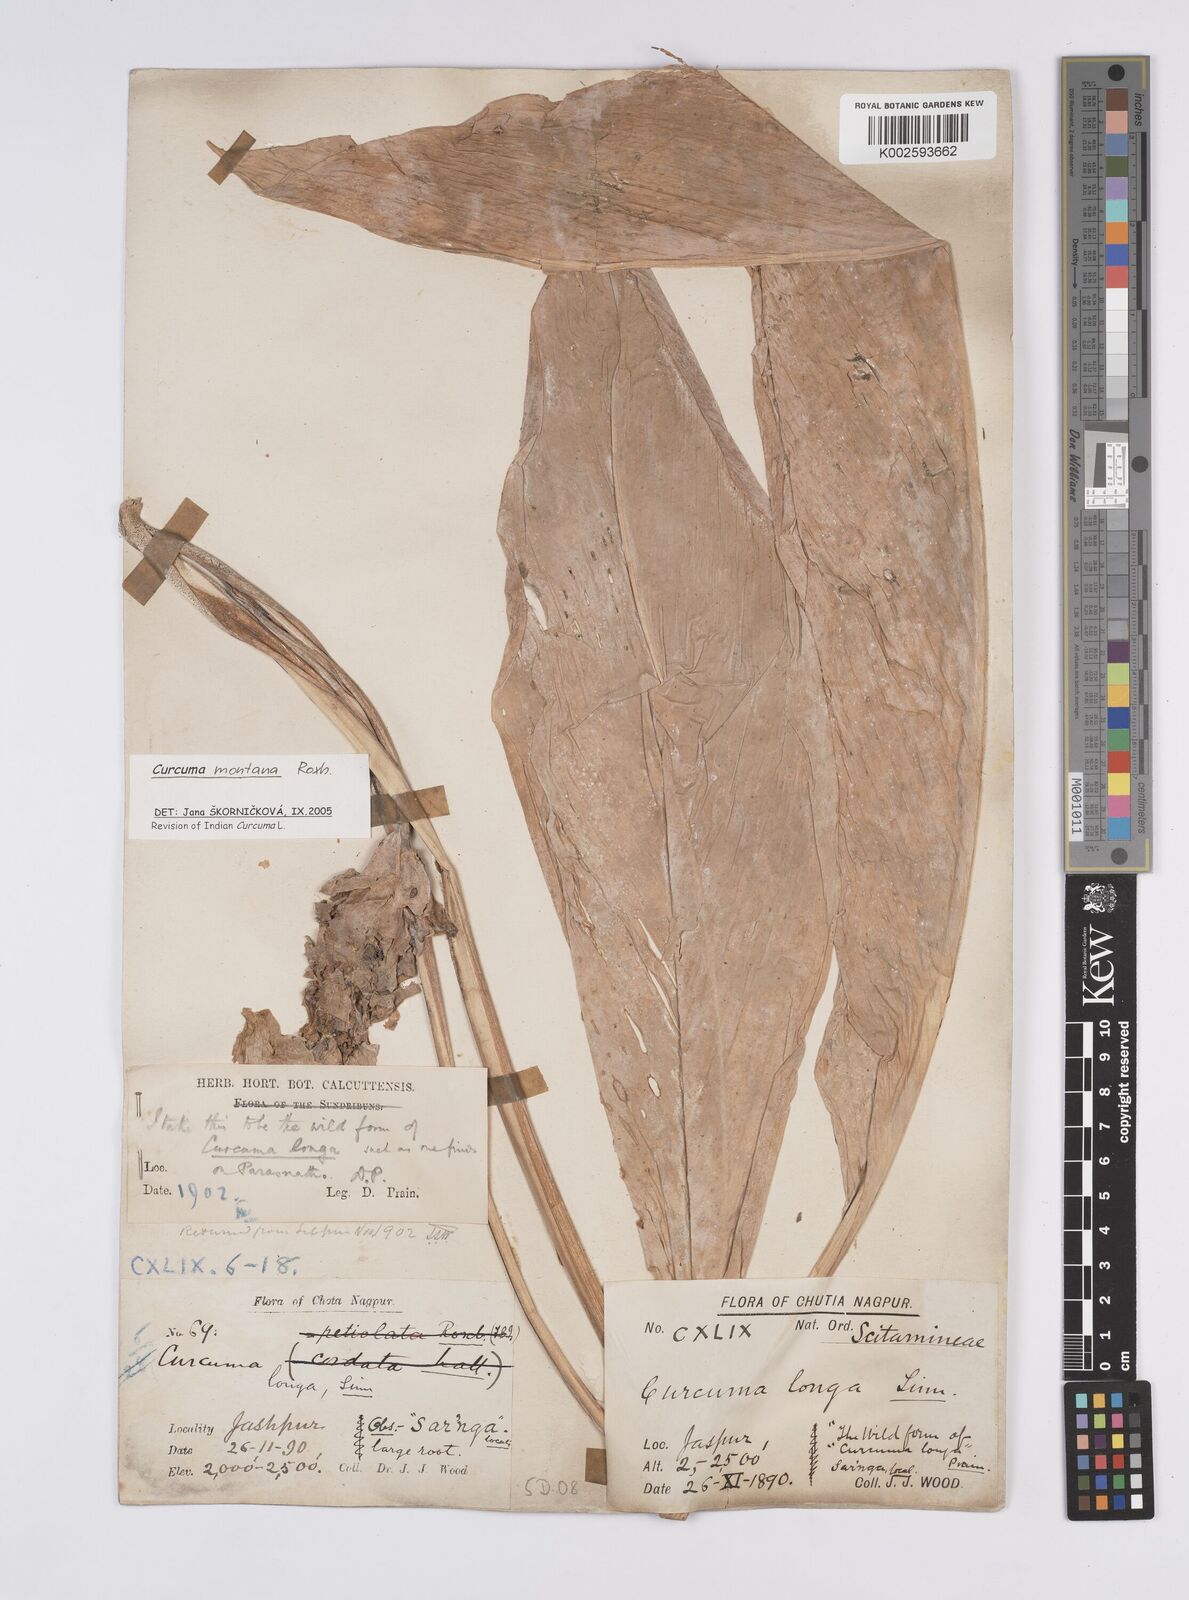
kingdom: Plantae
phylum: Tracheophyta
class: Liliopsida
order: Zingiberales
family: Zingiberaceae
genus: Curcuma
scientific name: Curcuma montana
